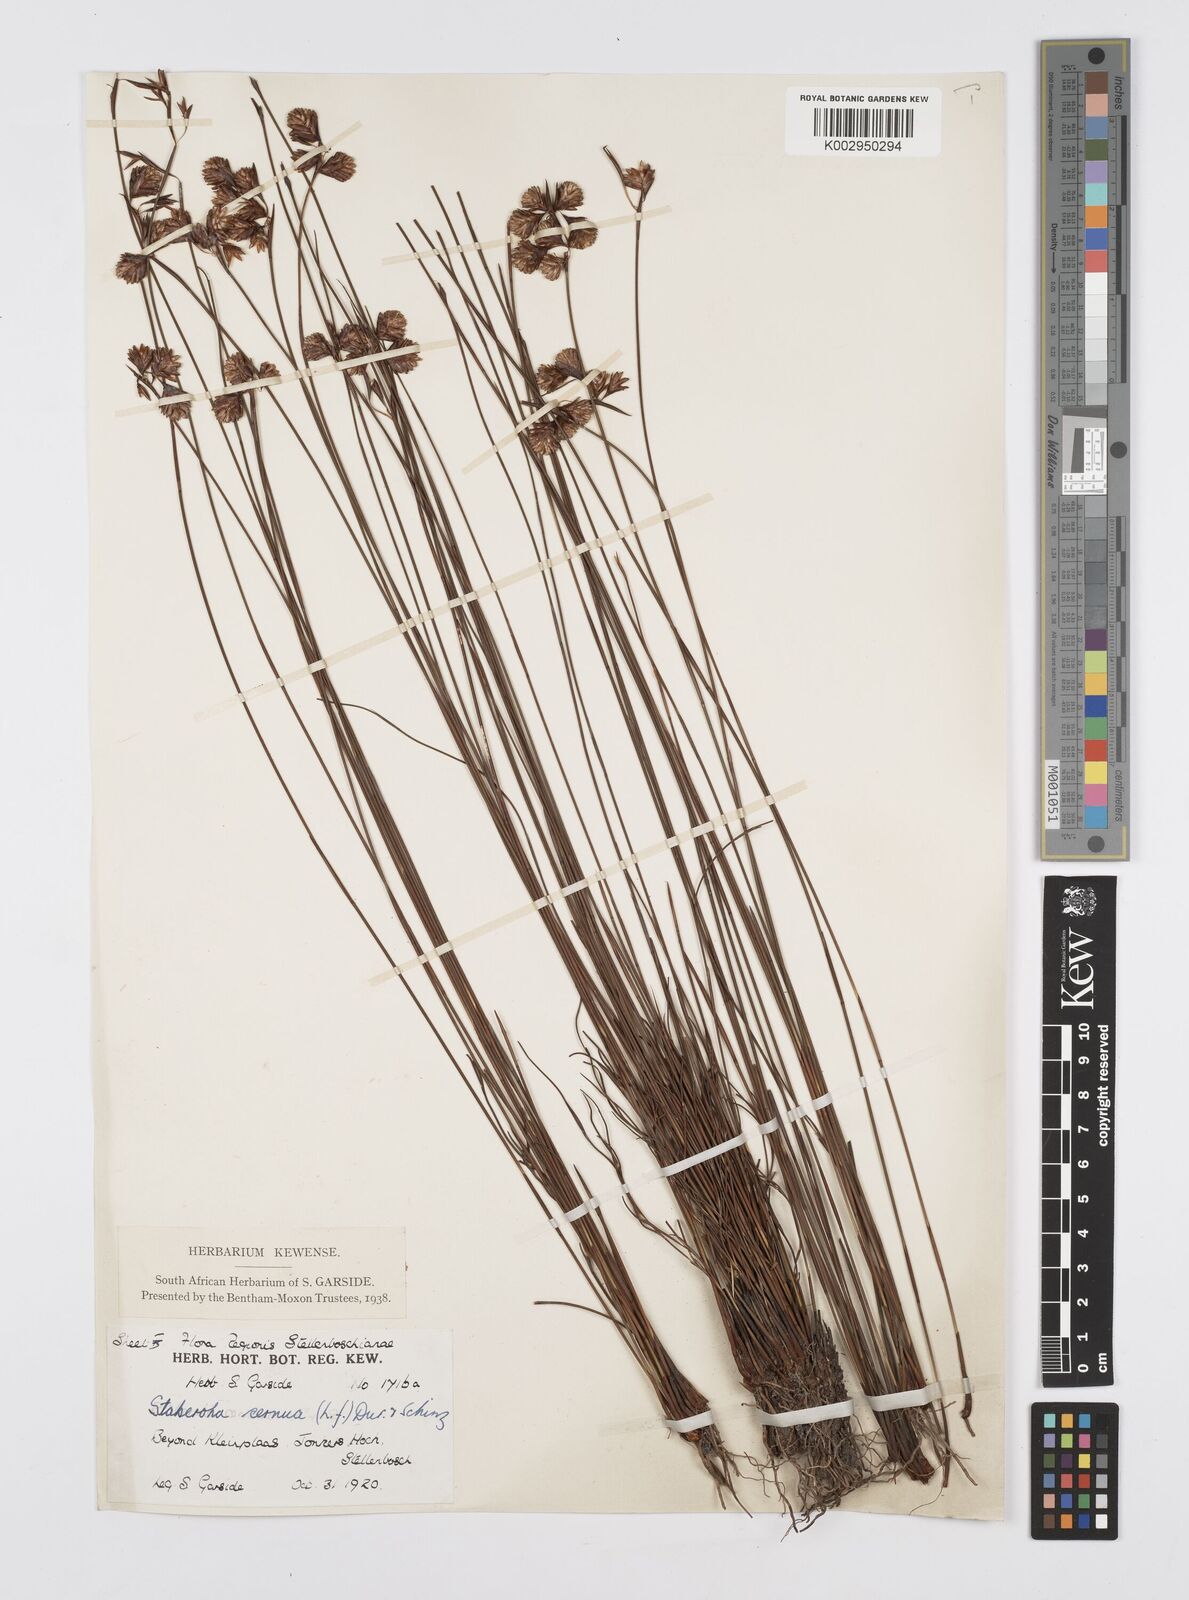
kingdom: Plantae
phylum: Tracheophyta
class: Liliopsida
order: Poales
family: Restionaceae
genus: Staberoha
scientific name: Staberoha cernua
